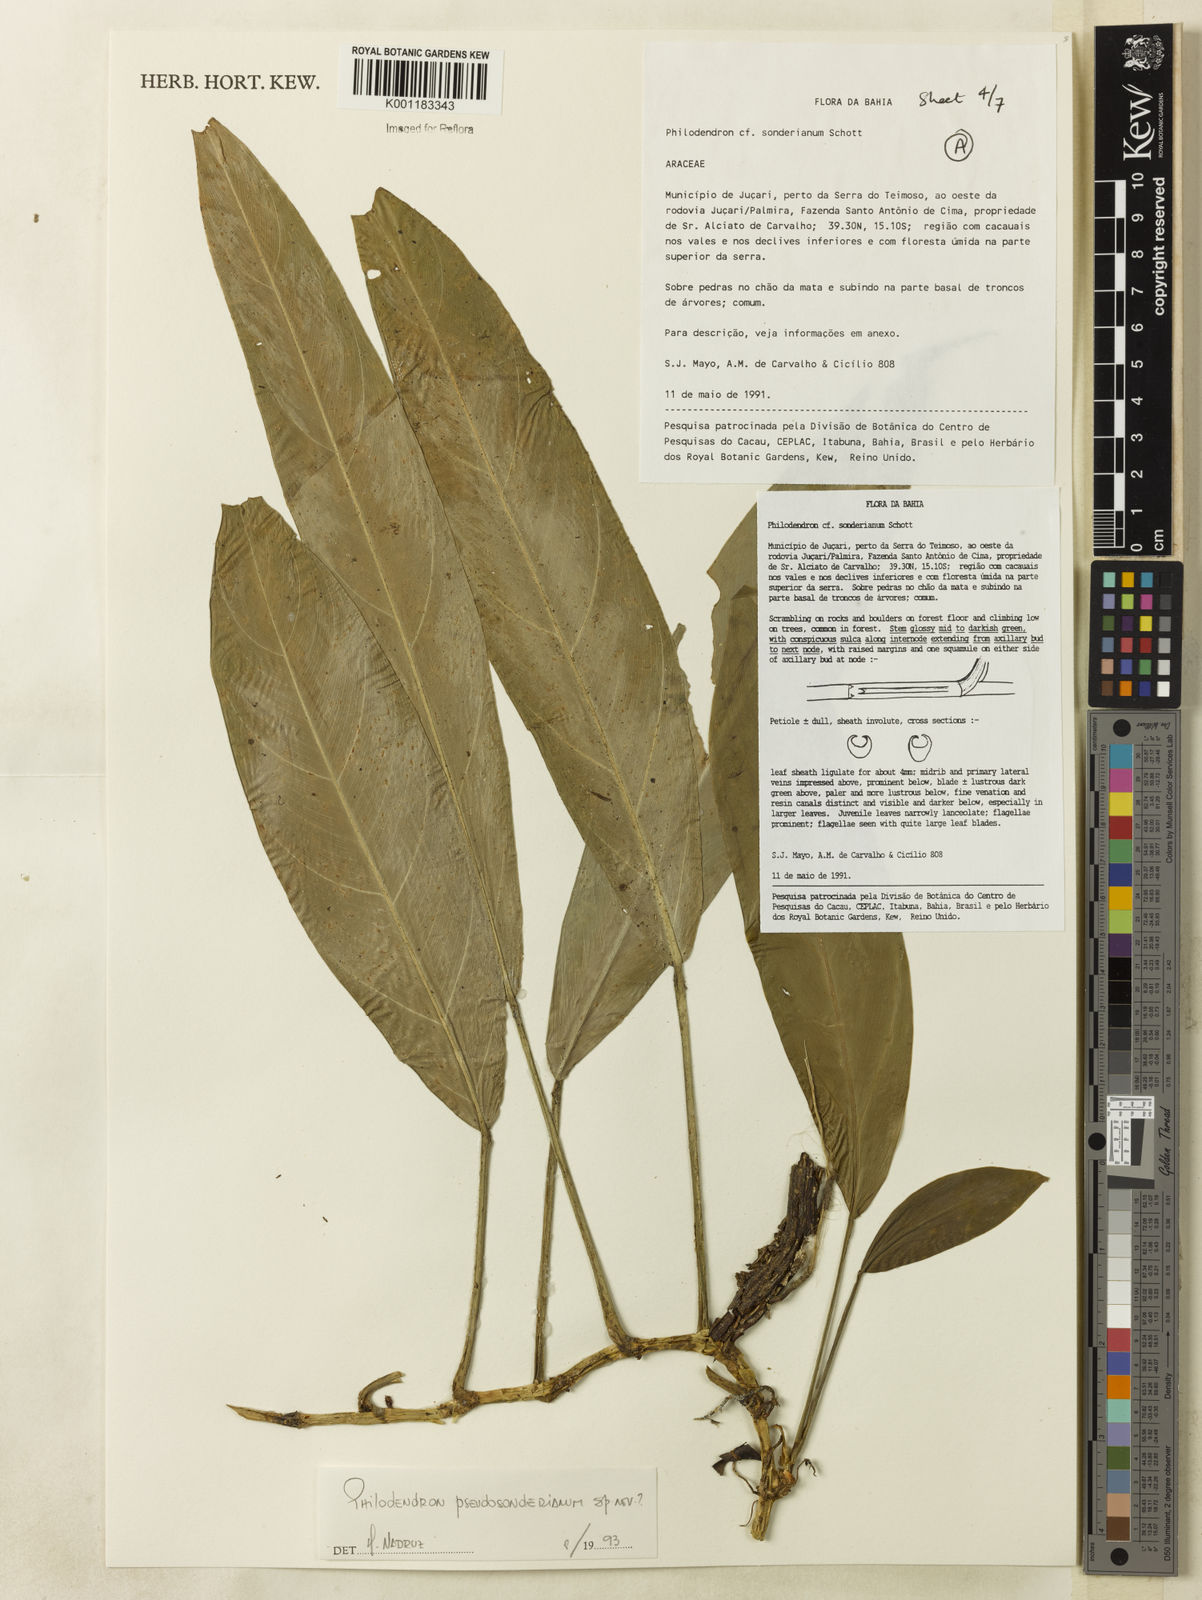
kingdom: Plantae
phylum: Tracheophyta
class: Liliopsida
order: Alismatales
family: Araceae
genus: Philodendron
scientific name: Philodendron
